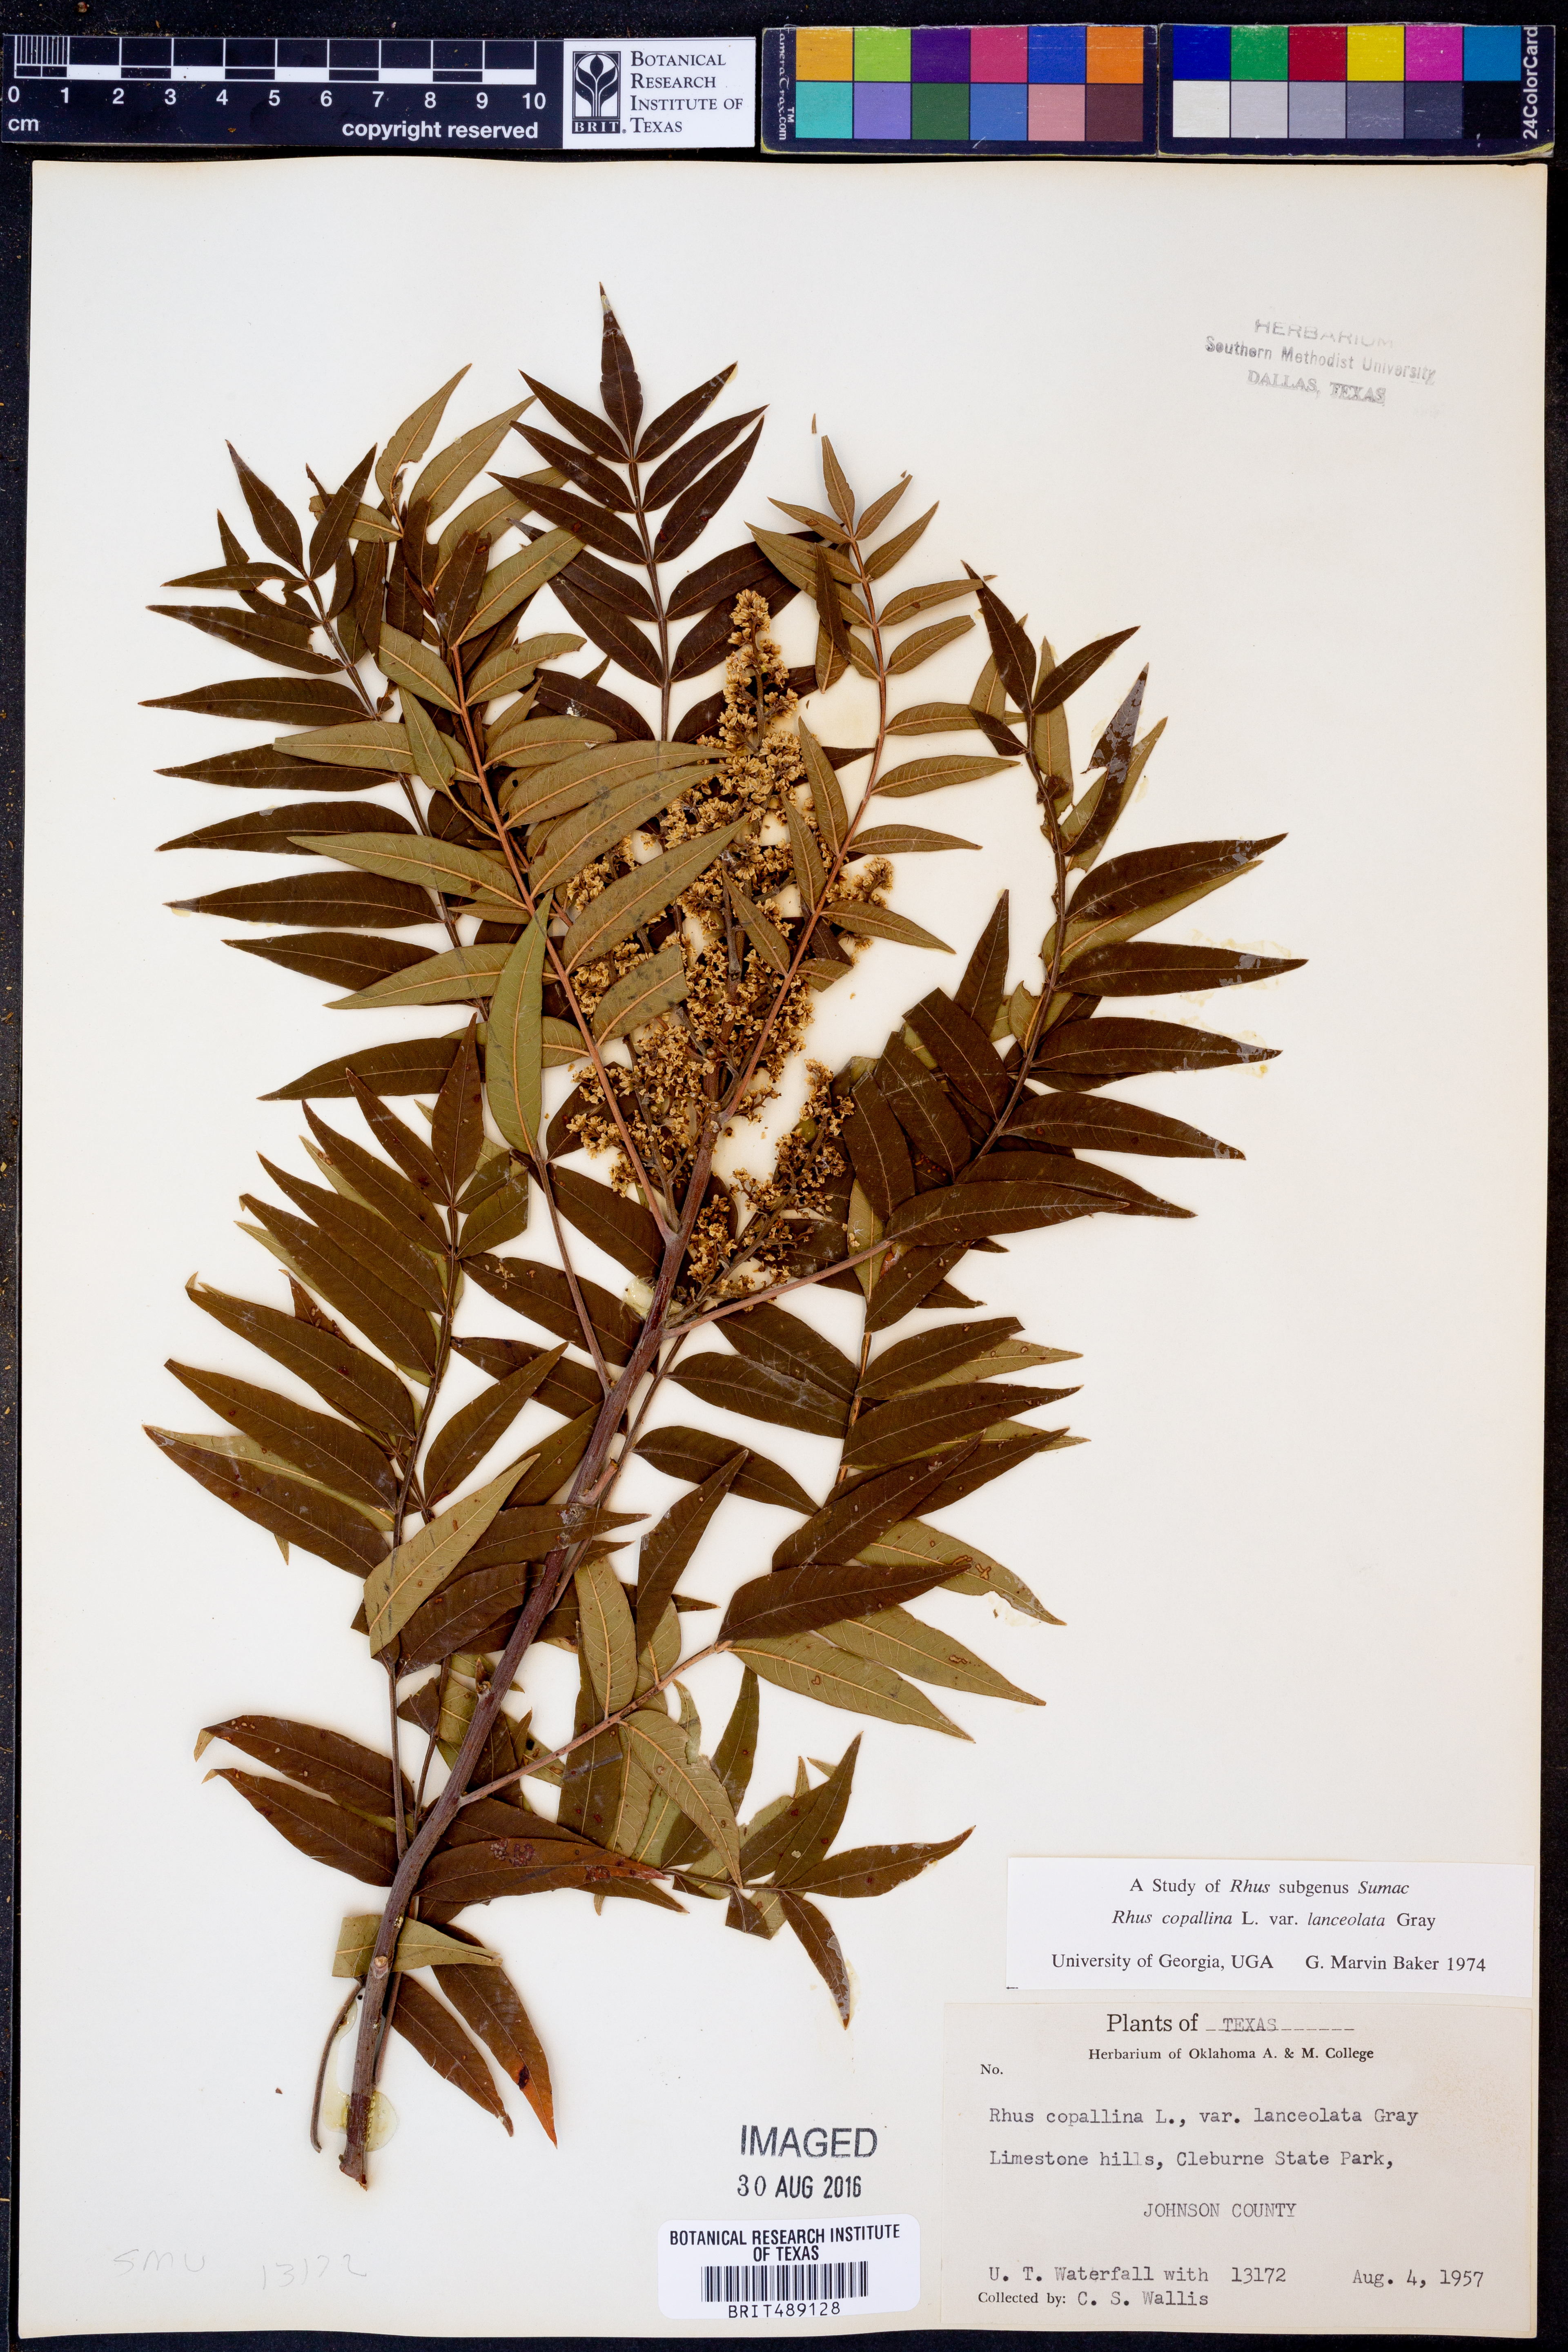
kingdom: Plantae
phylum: Tracheophyta
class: Magnoliopsida
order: Sapindales
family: Anacardiaceae
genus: Rhus
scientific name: Rhus lanceolata
